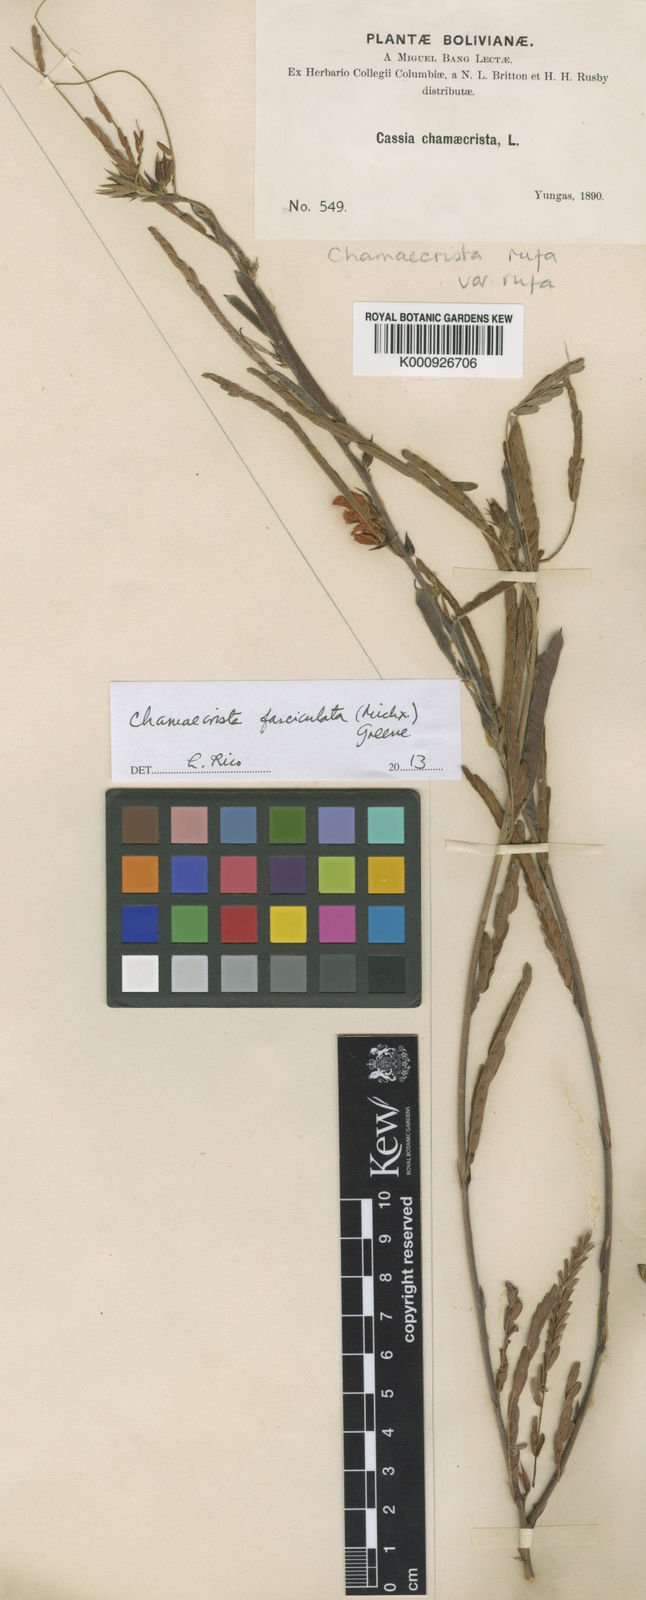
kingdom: Plantae
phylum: Tracheophyta
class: Magnoliopsida
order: Fabales
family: Fabaceae
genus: Chamaecrista
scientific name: Chamaecrista fasciculata
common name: Golden cassia
